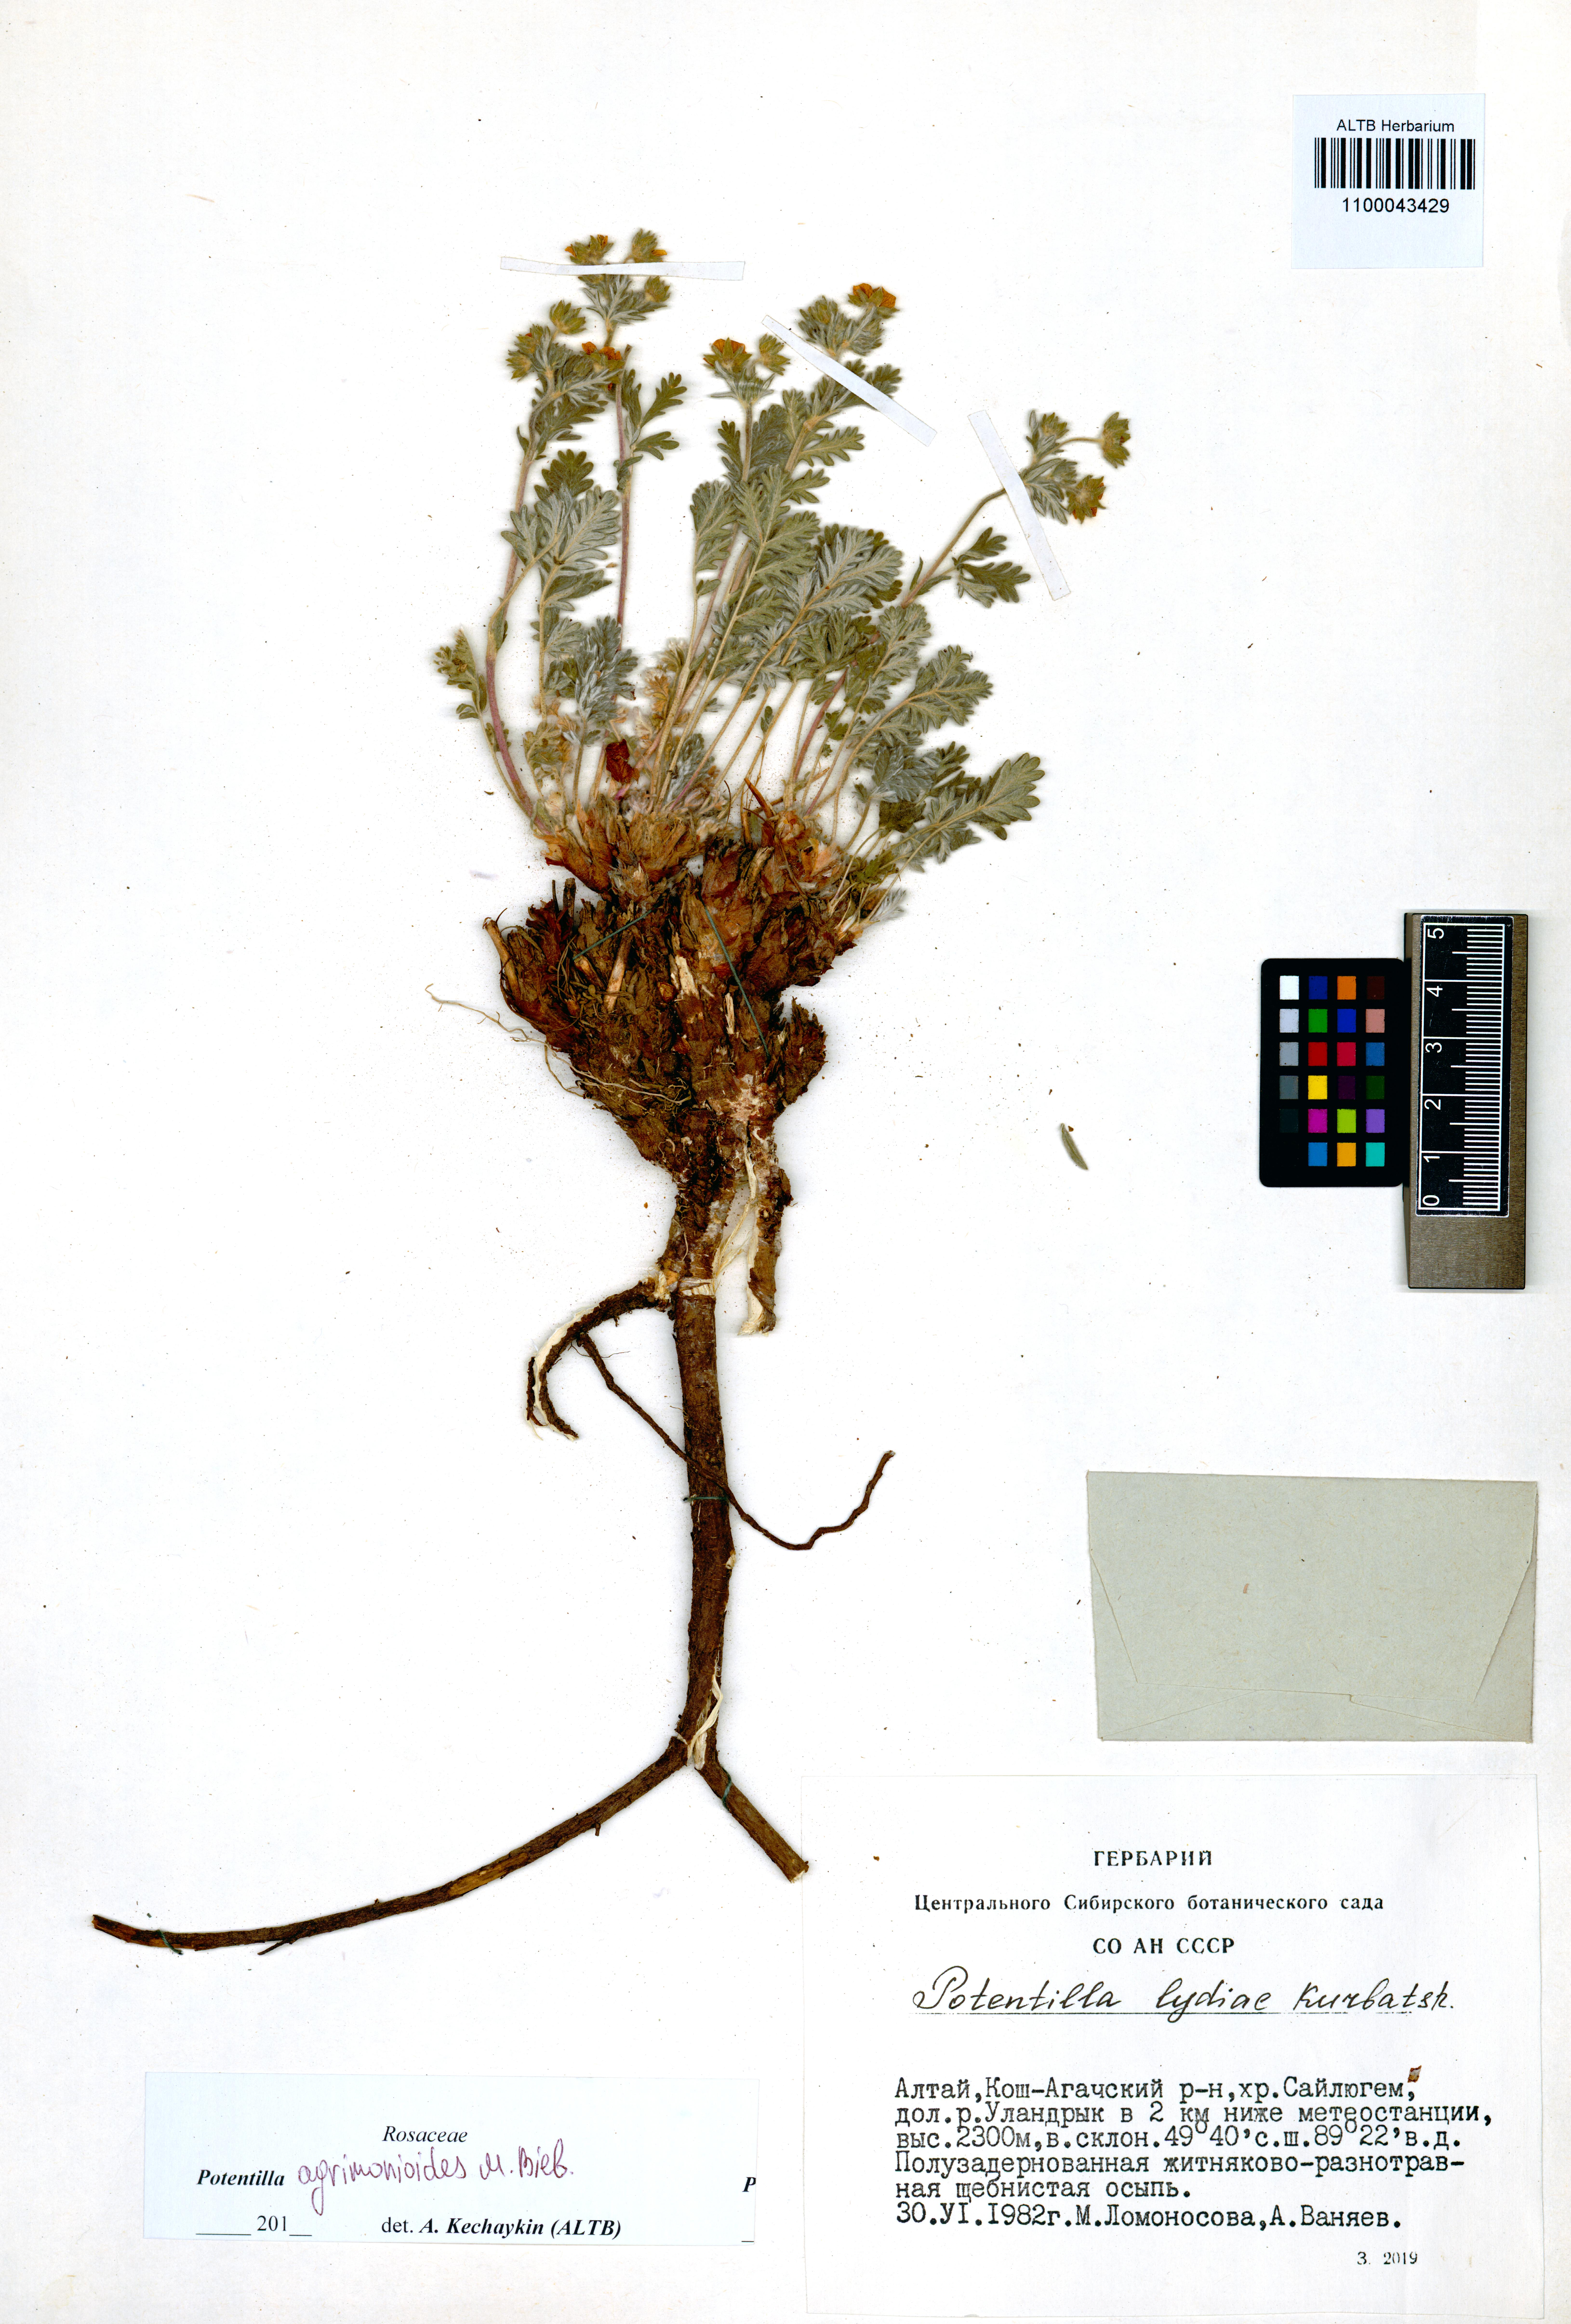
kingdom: Plantae
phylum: Tracheophyta
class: Magnoliopsida
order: Rosales
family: Rosaceae
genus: Potentilla
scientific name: Potentilla agrimonioides
